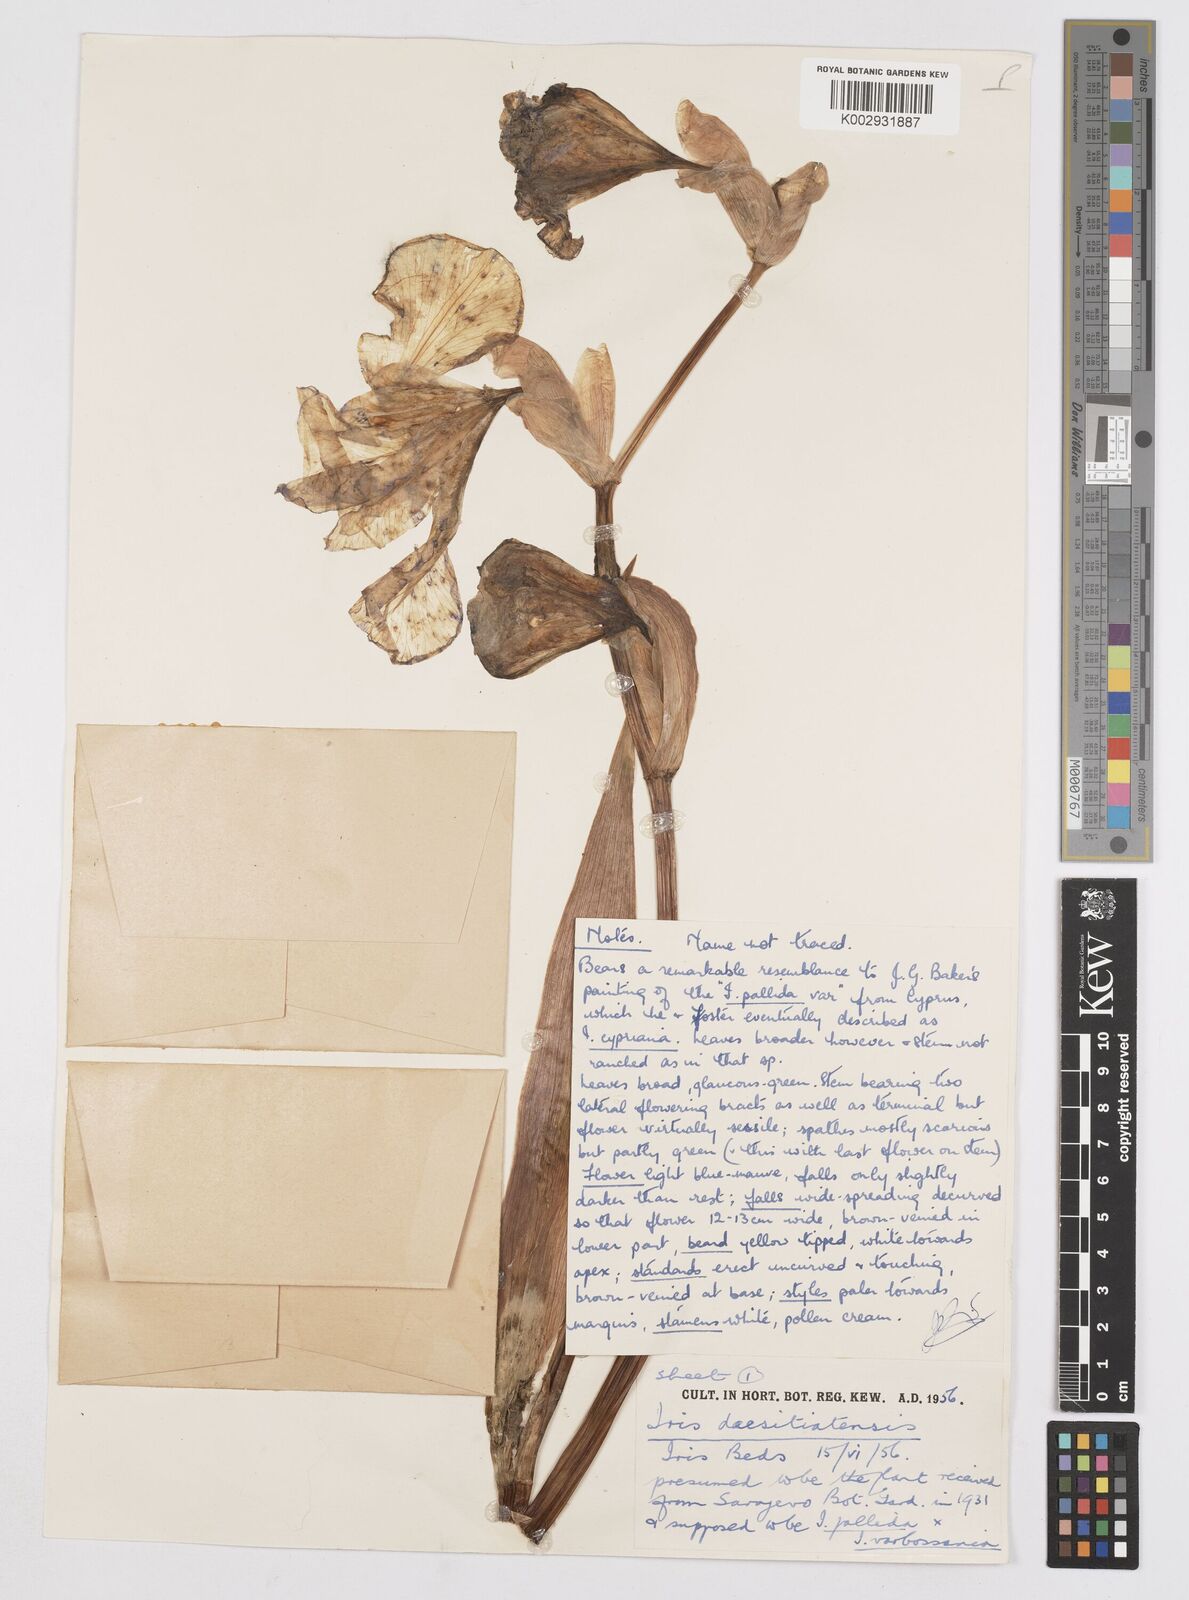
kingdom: Plantae
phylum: Tracheophyta
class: Liliopsida
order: Asparagales
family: Iridaceae
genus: Iris
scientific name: Iris germanica
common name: German iris
